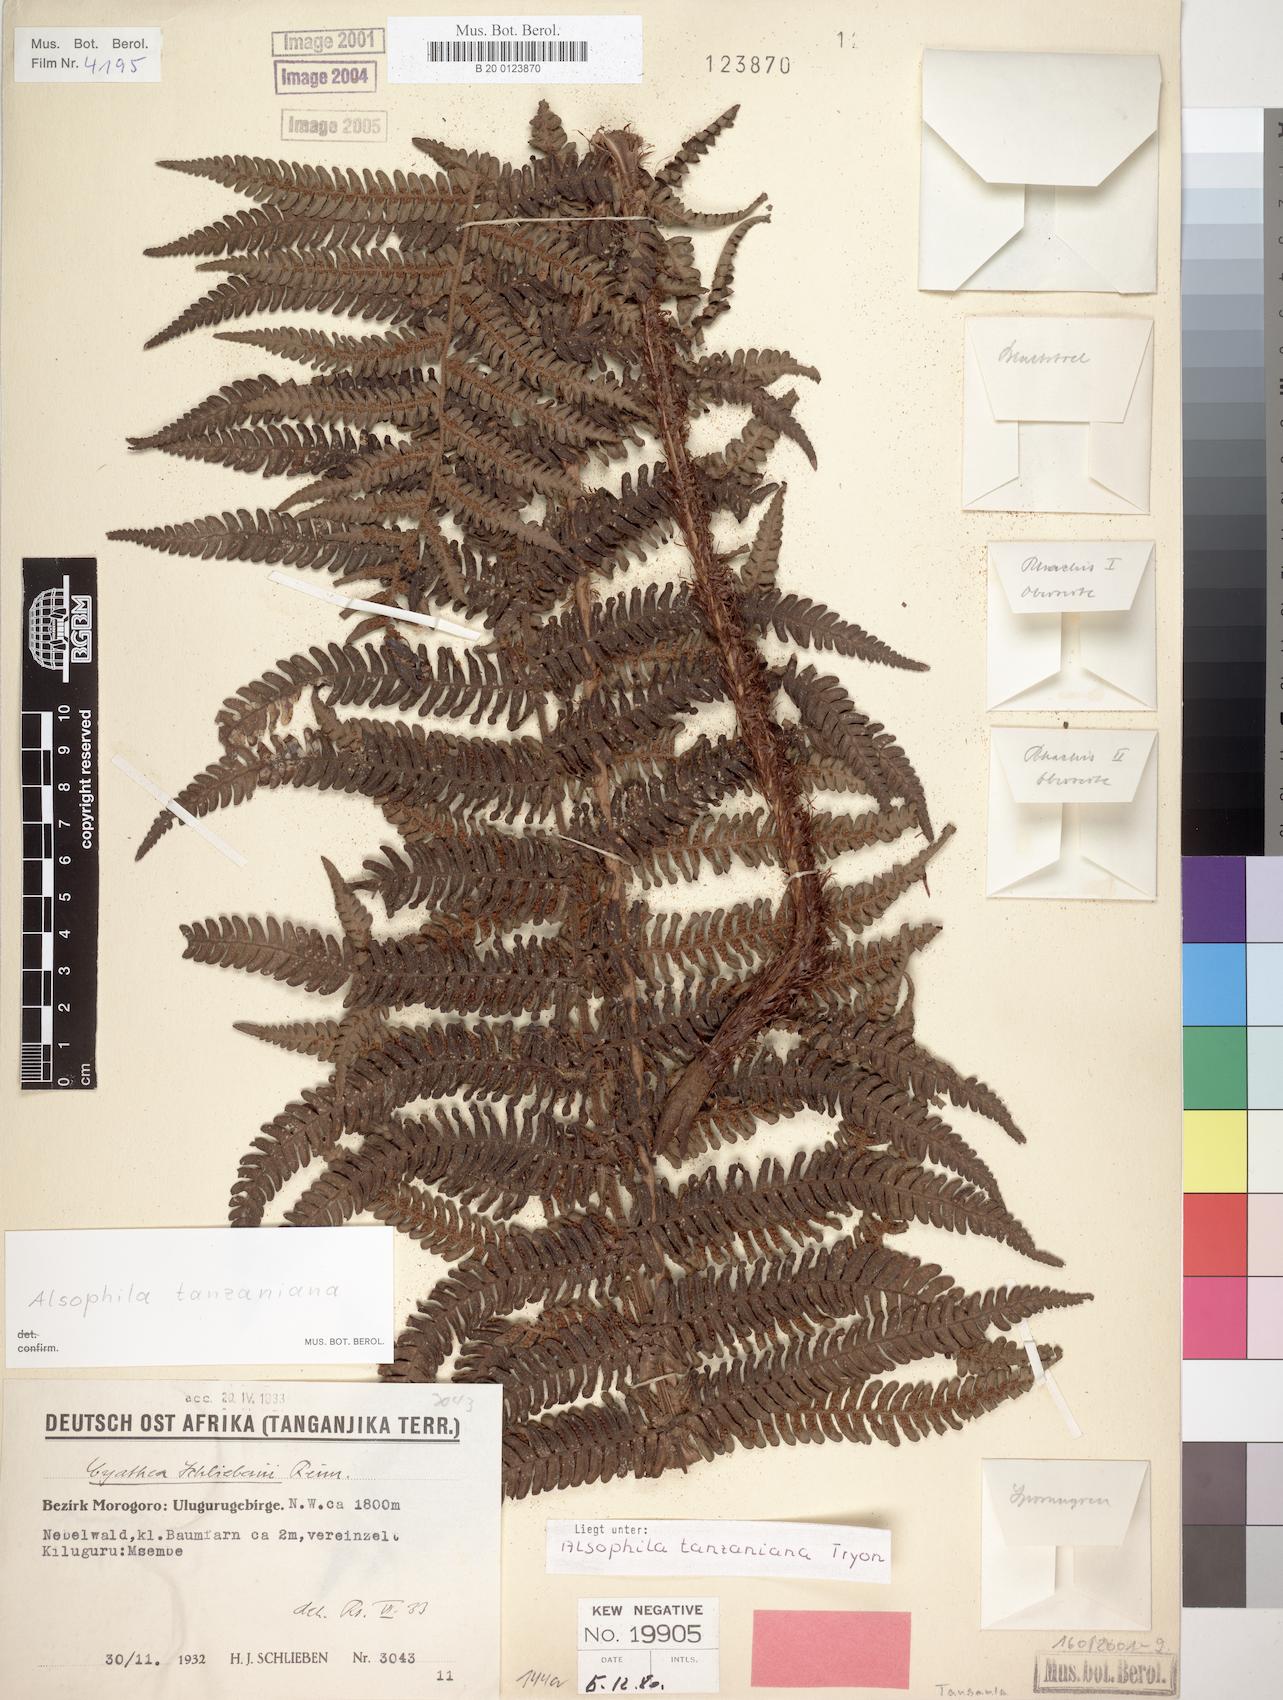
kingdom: Plantae
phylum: Tracheophyta
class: Polypodiopsida
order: Cyatheales
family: Cyatheaceae
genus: Alsophila
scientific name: Alsophila tanzaniana
